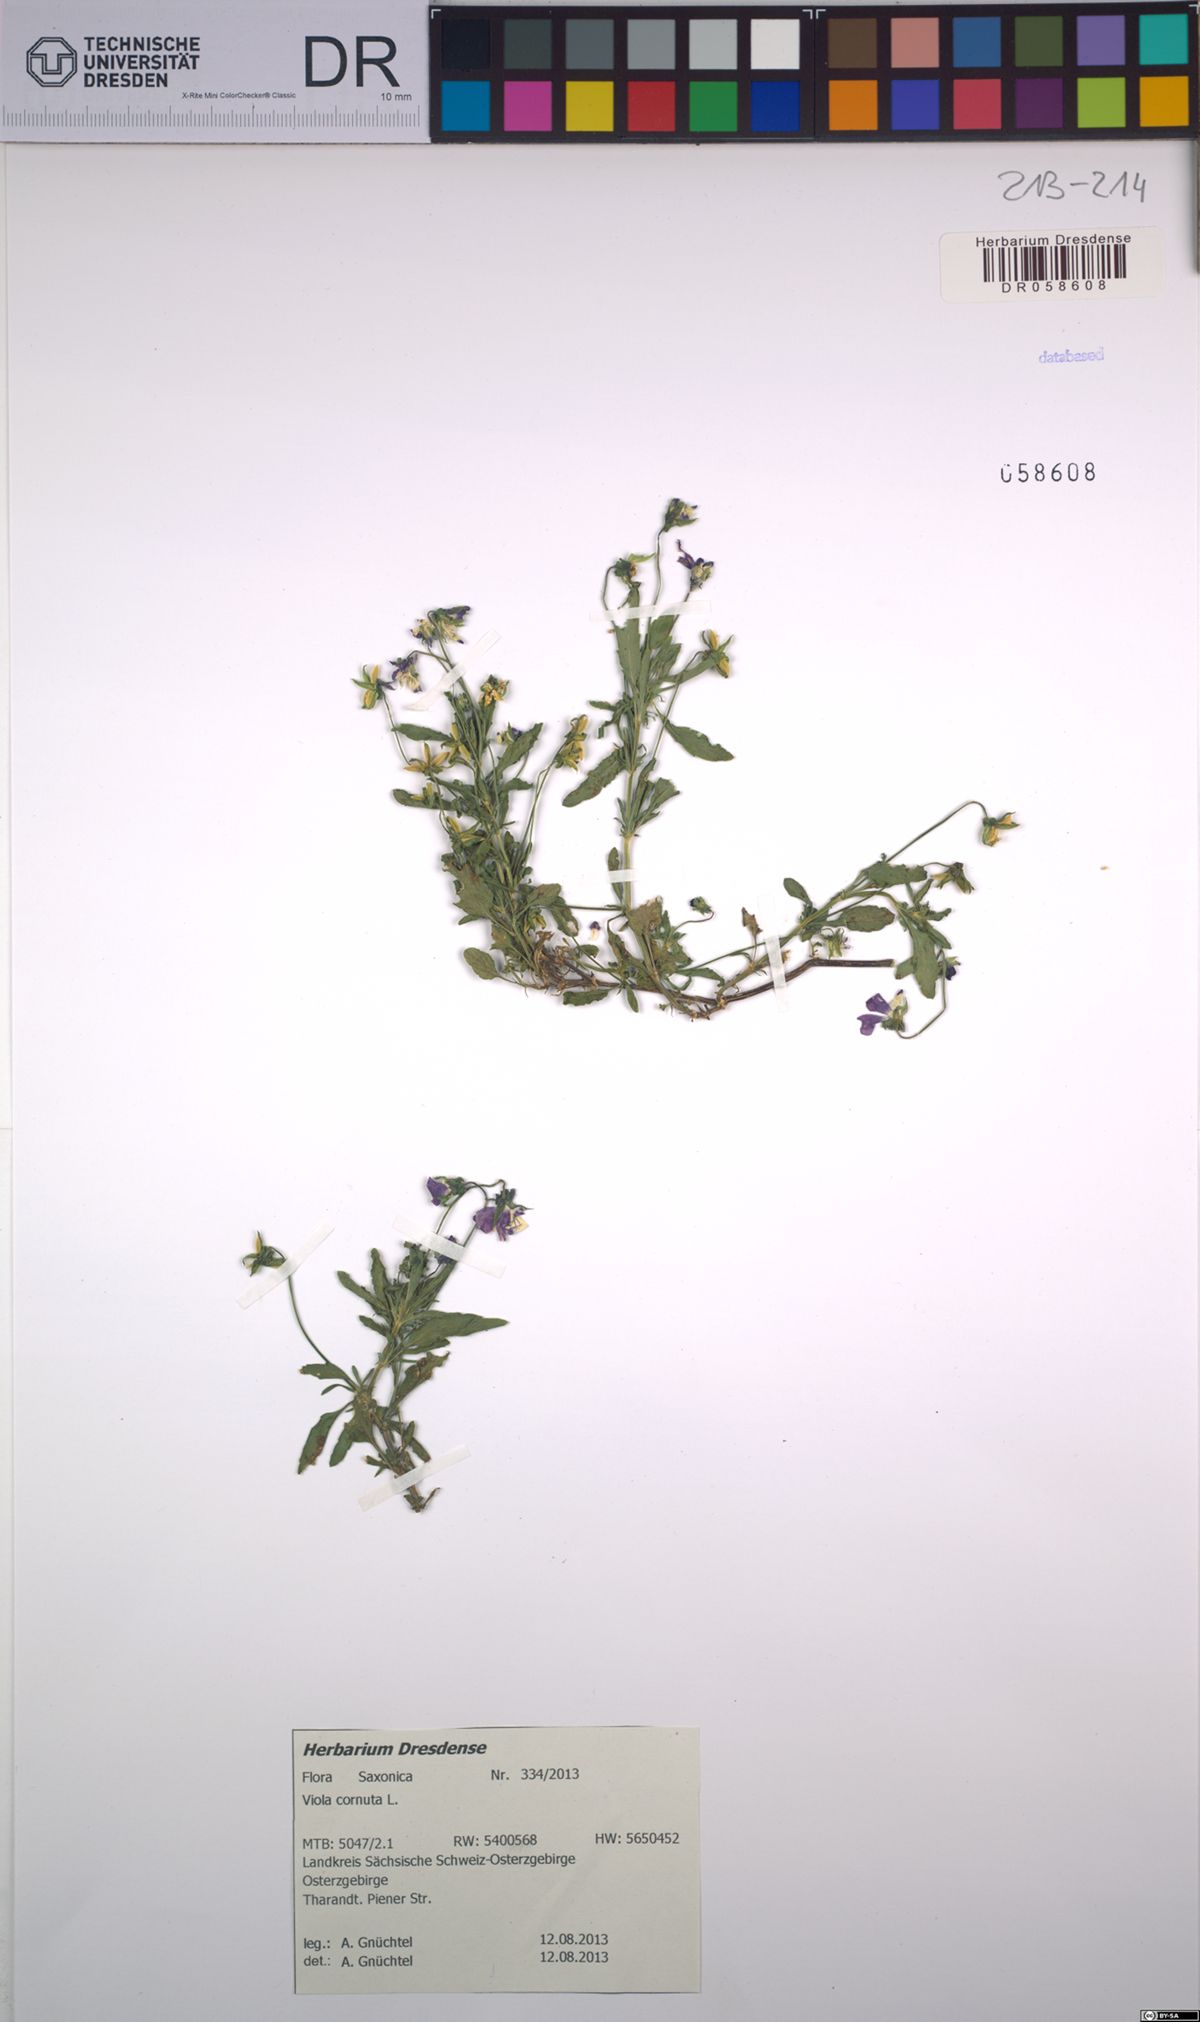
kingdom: Plantae
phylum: Tracheophyta
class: Magnoliopsida
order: Malpighiales
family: Violaceae
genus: Viola
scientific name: Viola cornuta
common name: Horned pansy
